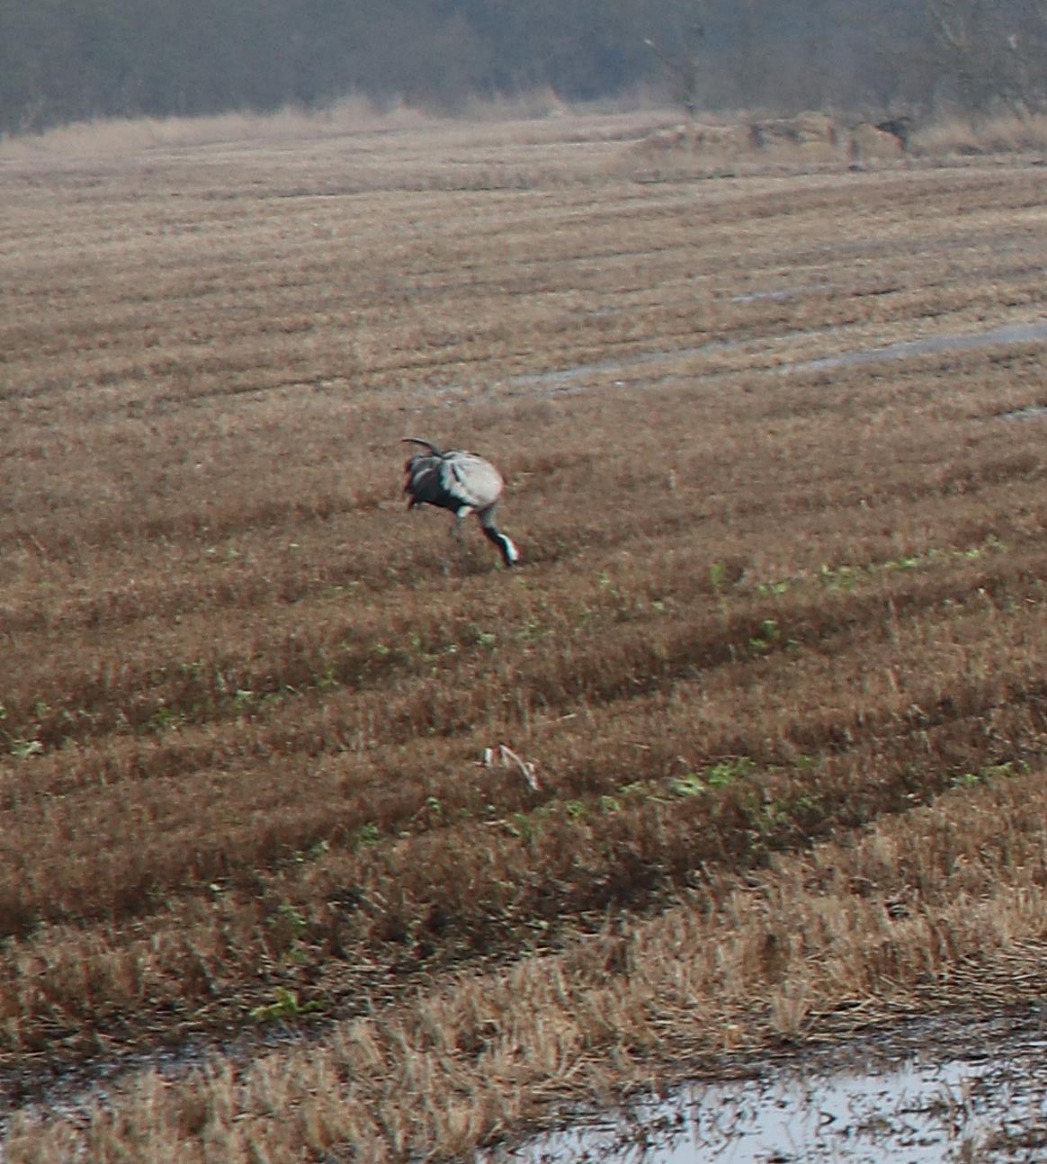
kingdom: Animalia
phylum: Chordata
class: Aves
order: Gruiformes
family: Gruidae
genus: Grus
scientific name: Grus grus
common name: Trane
